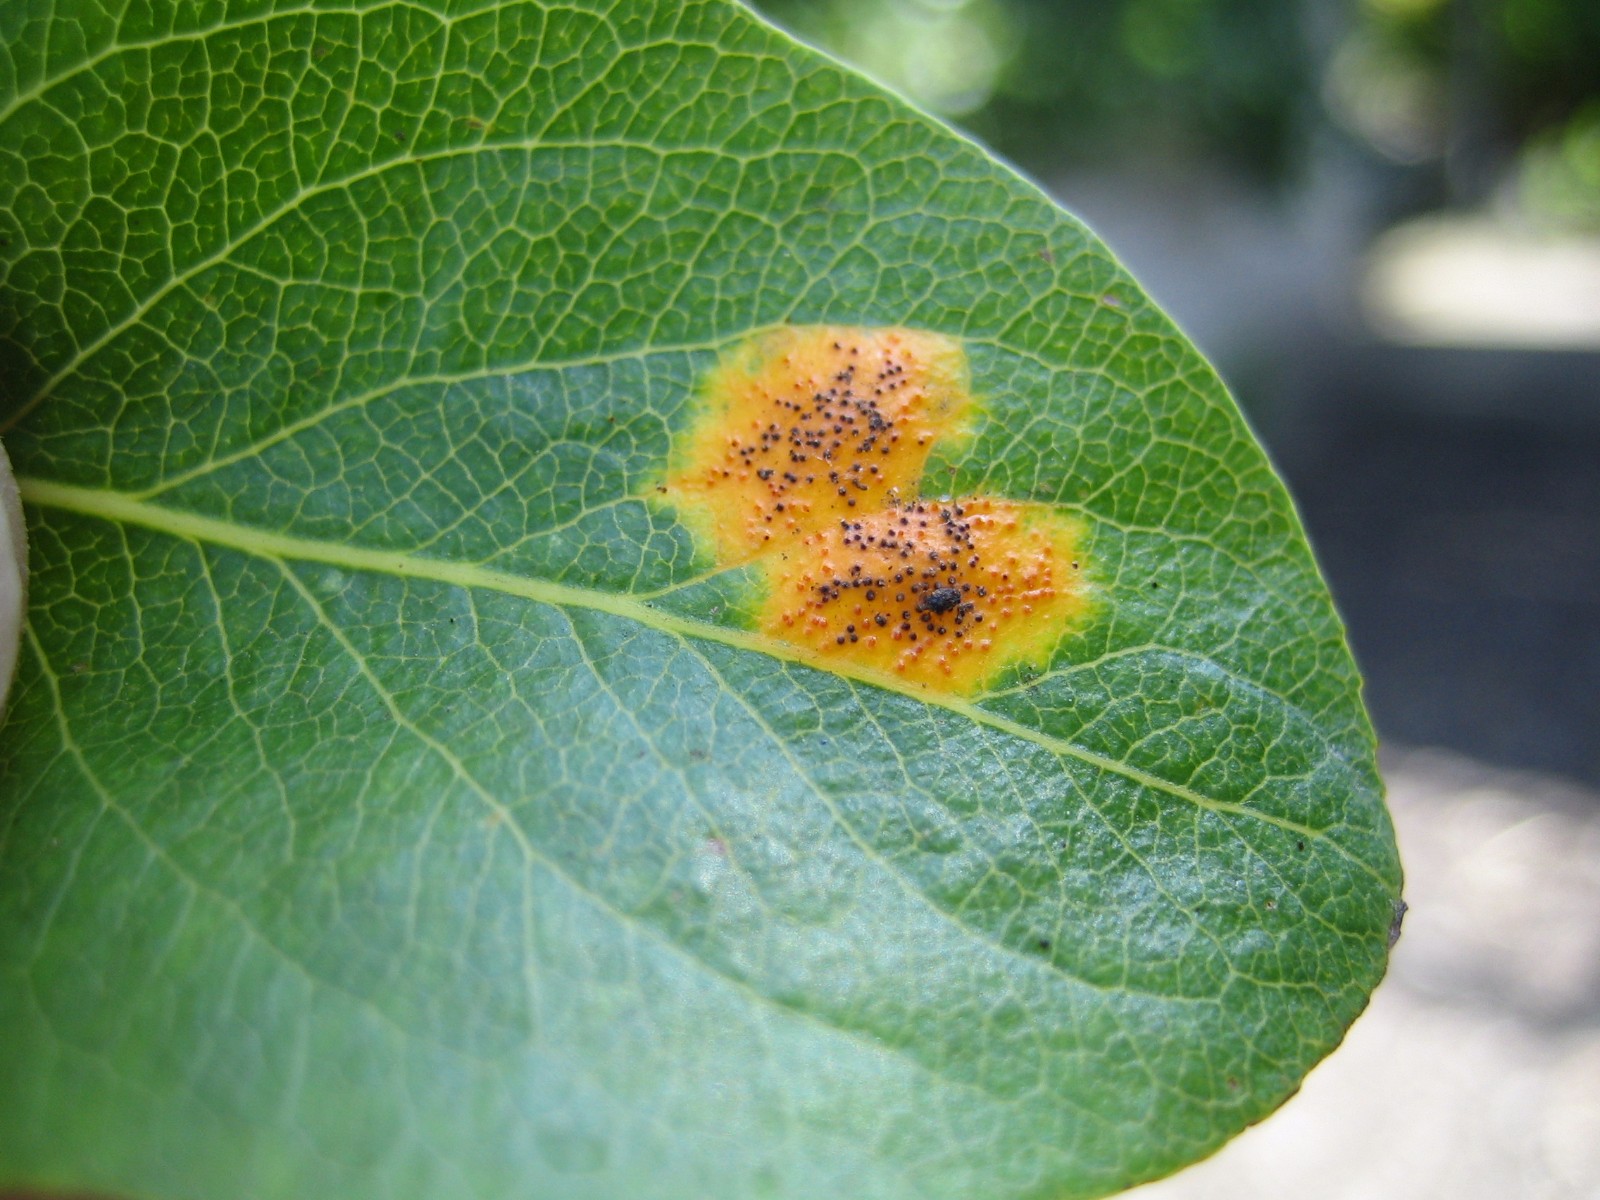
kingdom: Fungi
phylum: Basidiomycota
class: Pucciniomycetes
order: Pucciniales
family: Gymnosporangiaceae
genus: Gymnosporangium
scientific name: Gymnosporangium sabinae
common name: pæregitter-bævrerust
